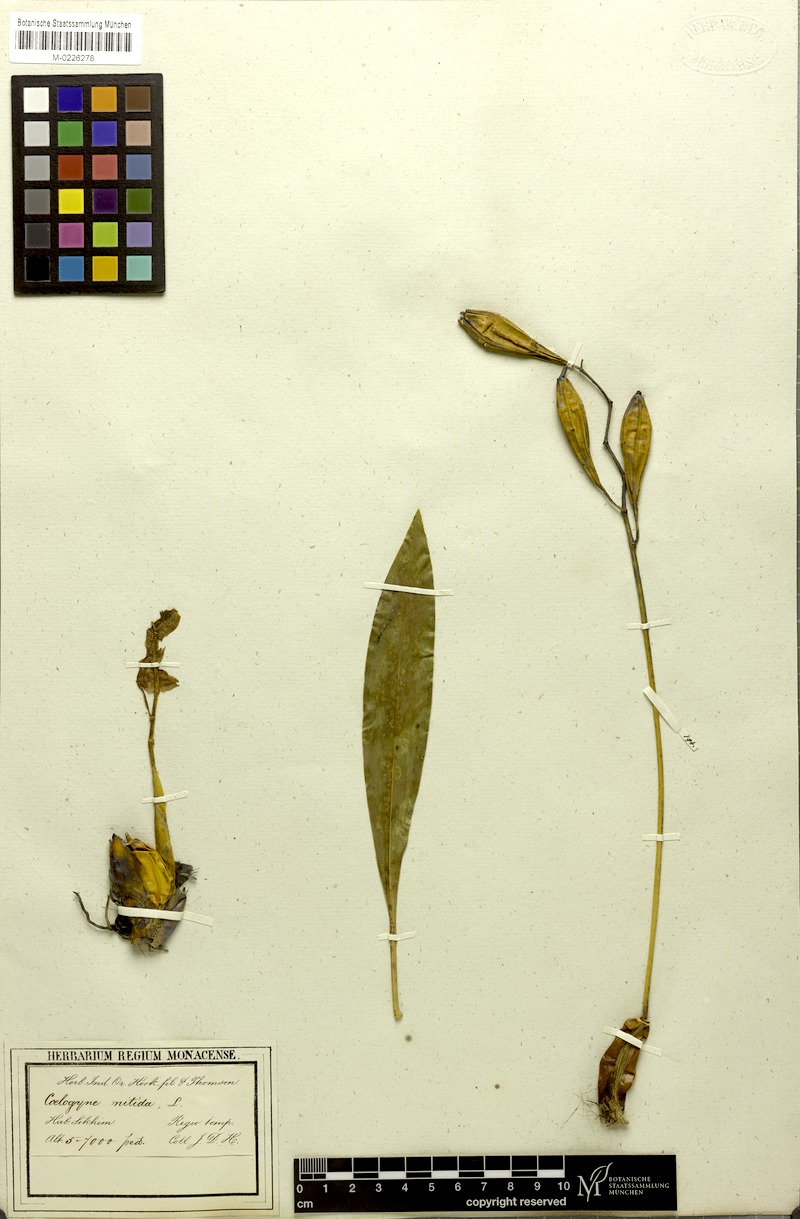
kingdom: Plantae
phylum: Tracheophyta
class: Liliopsida
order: Asparagales
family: Orchidaceae
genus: Coelogyne
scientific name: Coelogyne nitida
